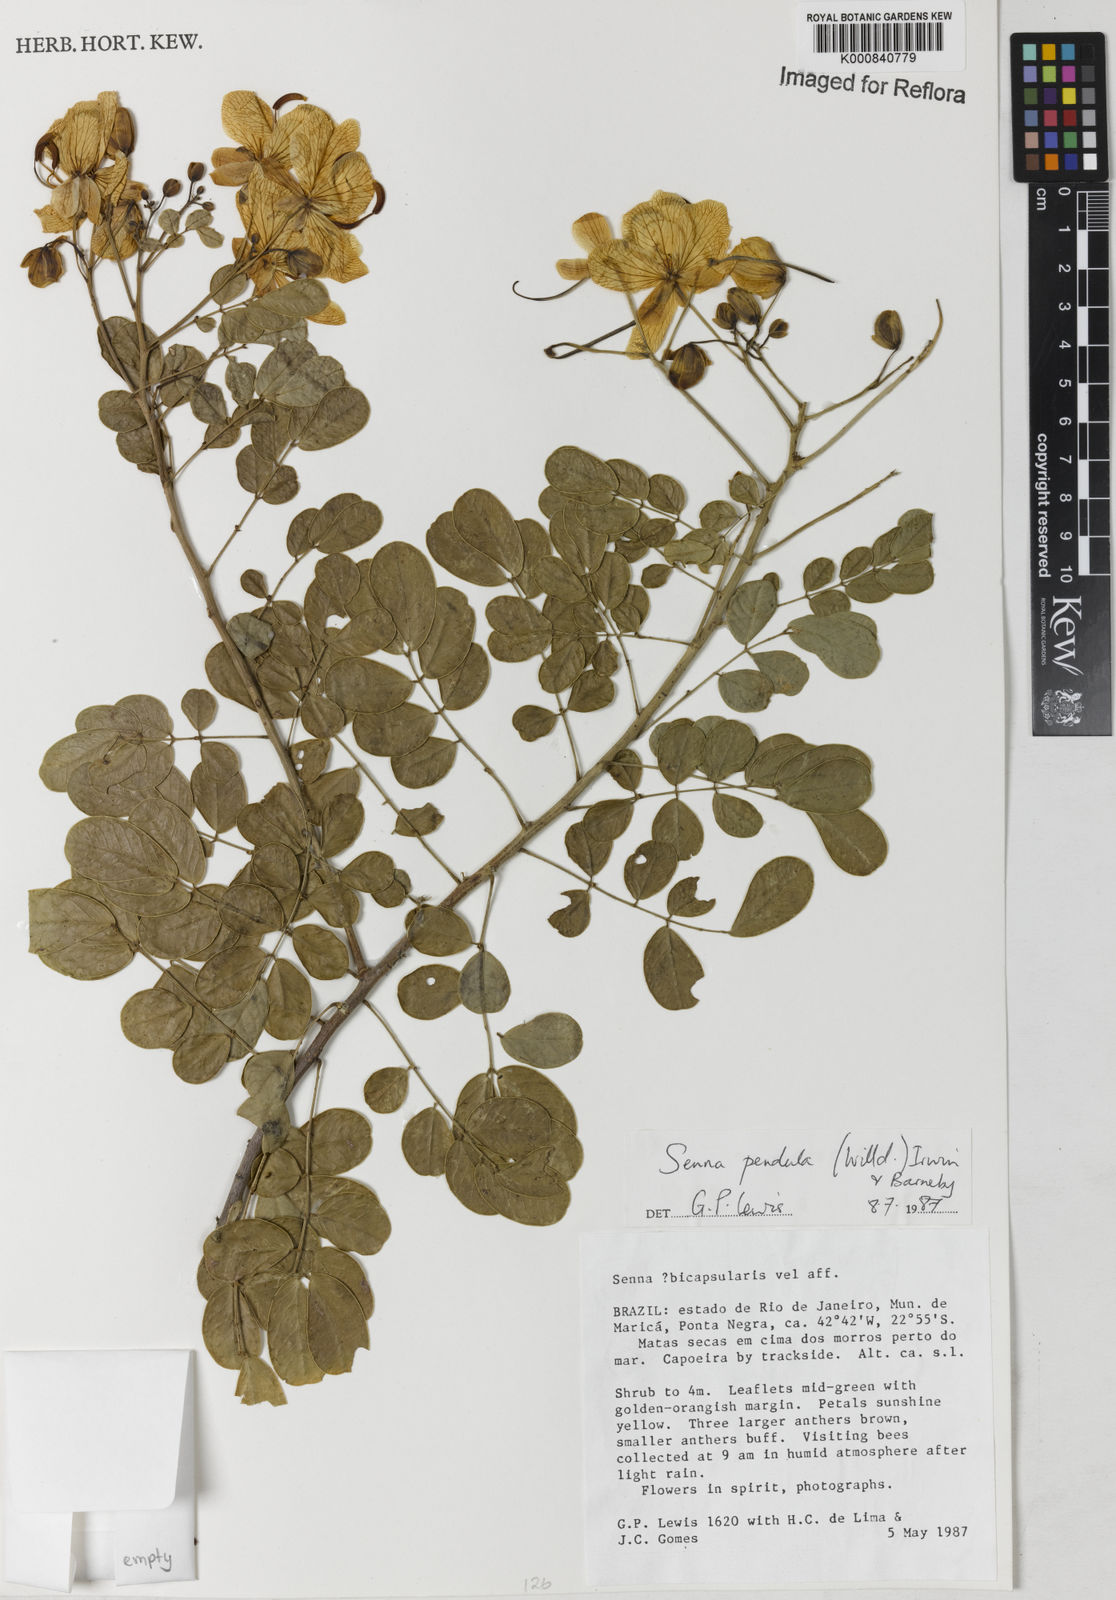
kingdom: Plantae
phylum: Tracheophyta
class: Magnoliopsida
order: Fabales
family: Fabaceae
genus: Senna
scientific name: Senna pendula
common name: Easter cassia
